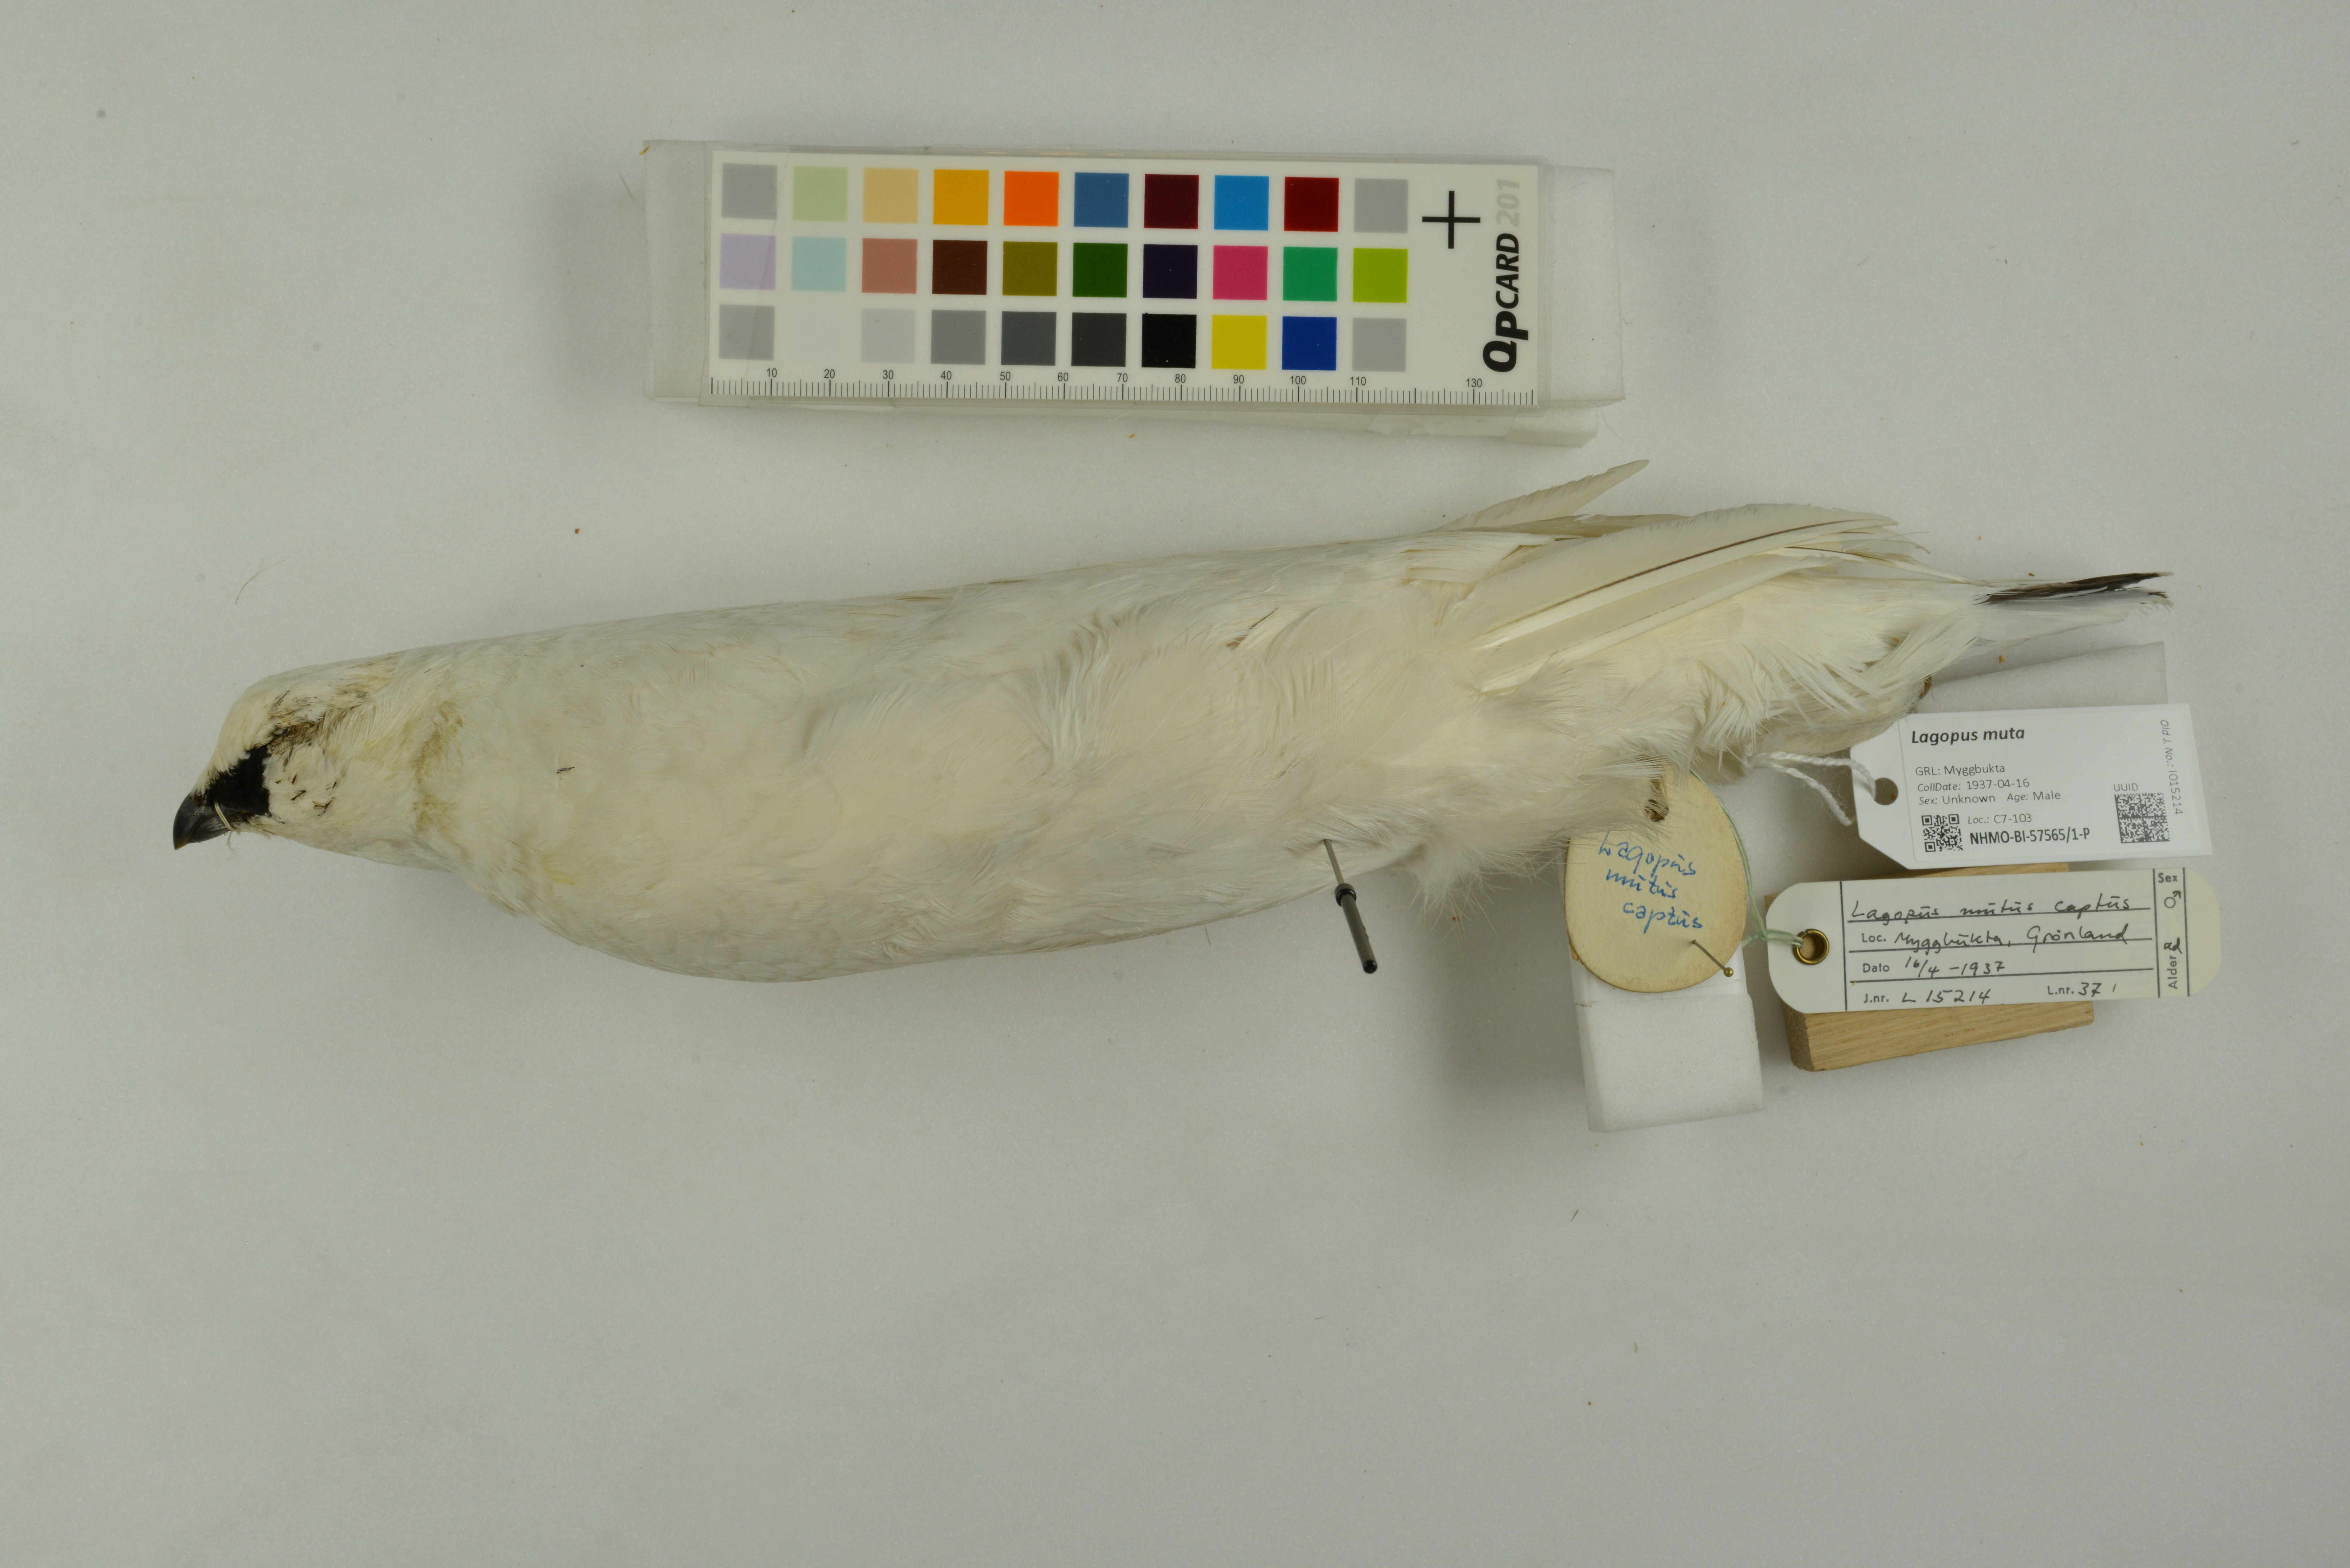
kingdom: Animalia
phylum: Chordata
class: Aves
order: Galliformes
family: Phasianidae
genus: Lagopus
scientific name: Lagopus muta
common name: Rock ptarmigan
